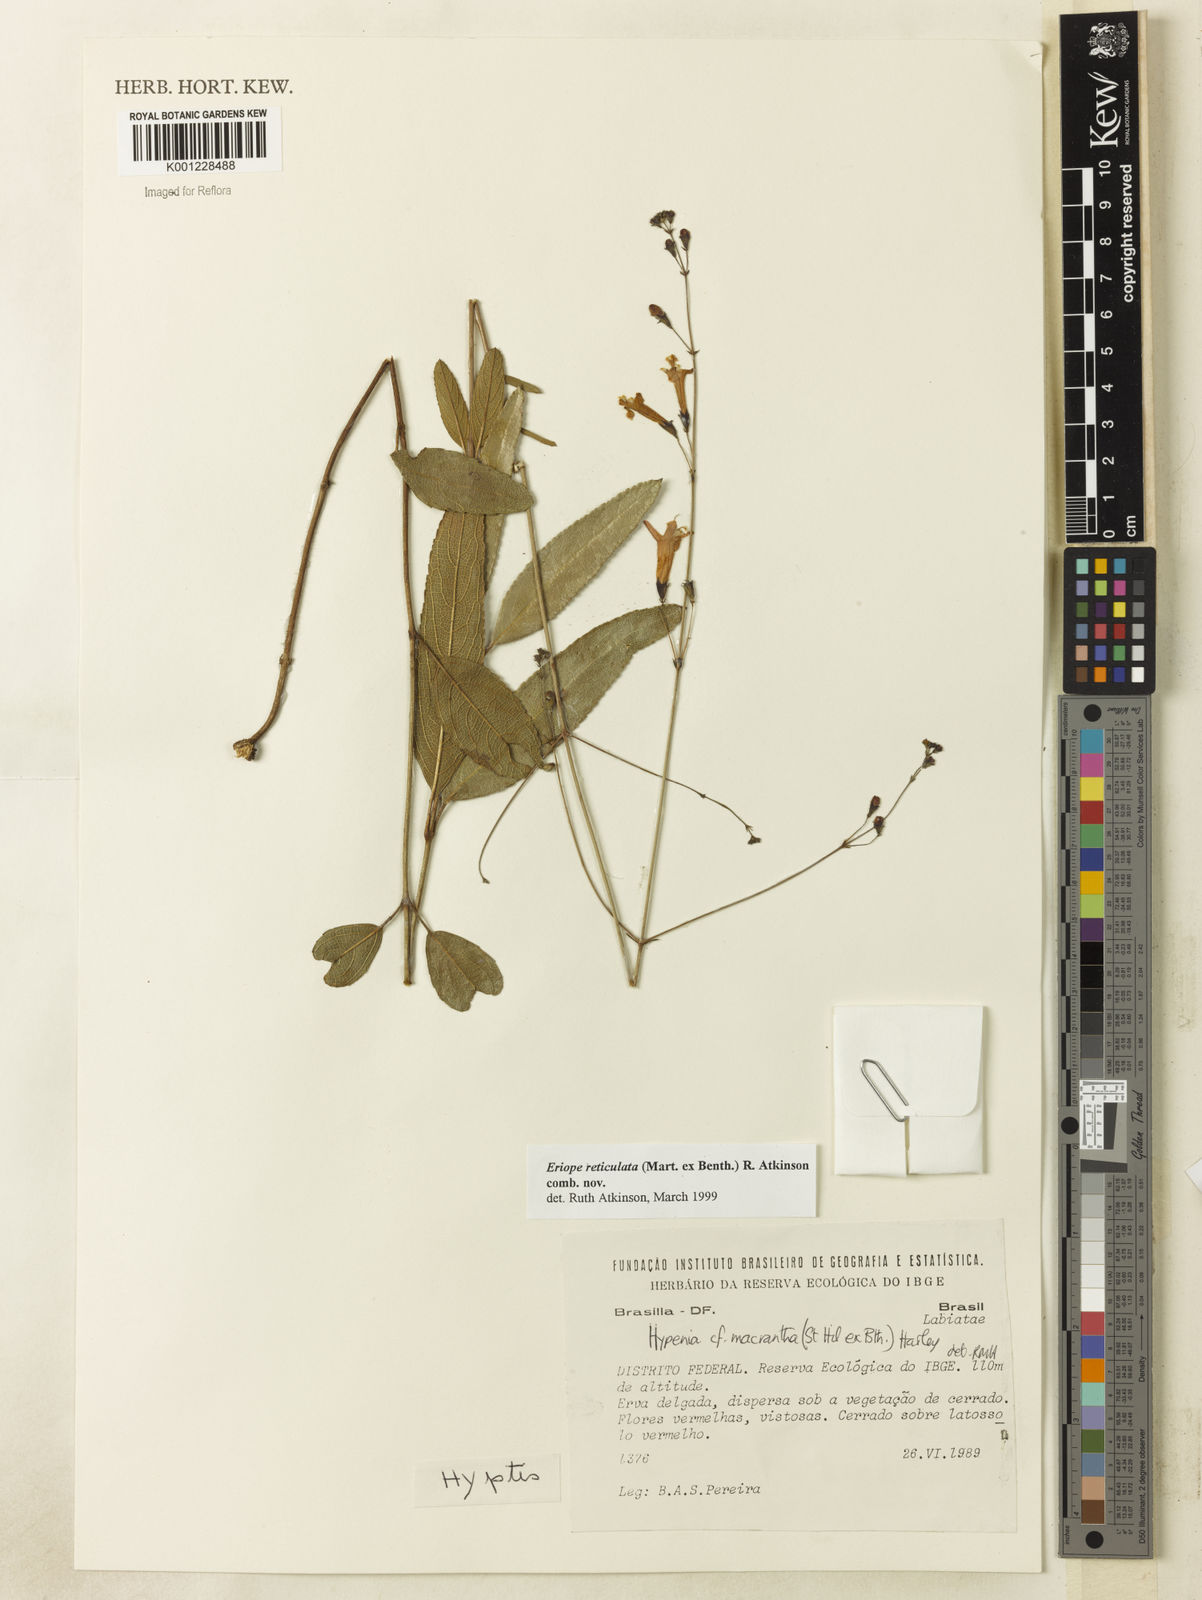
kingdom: Plantae
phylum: Tracheophyta
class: Magnoliopsida
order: Lamiales
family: Lamiaceae
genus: Hypenia
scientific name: Hypenia reticulata
